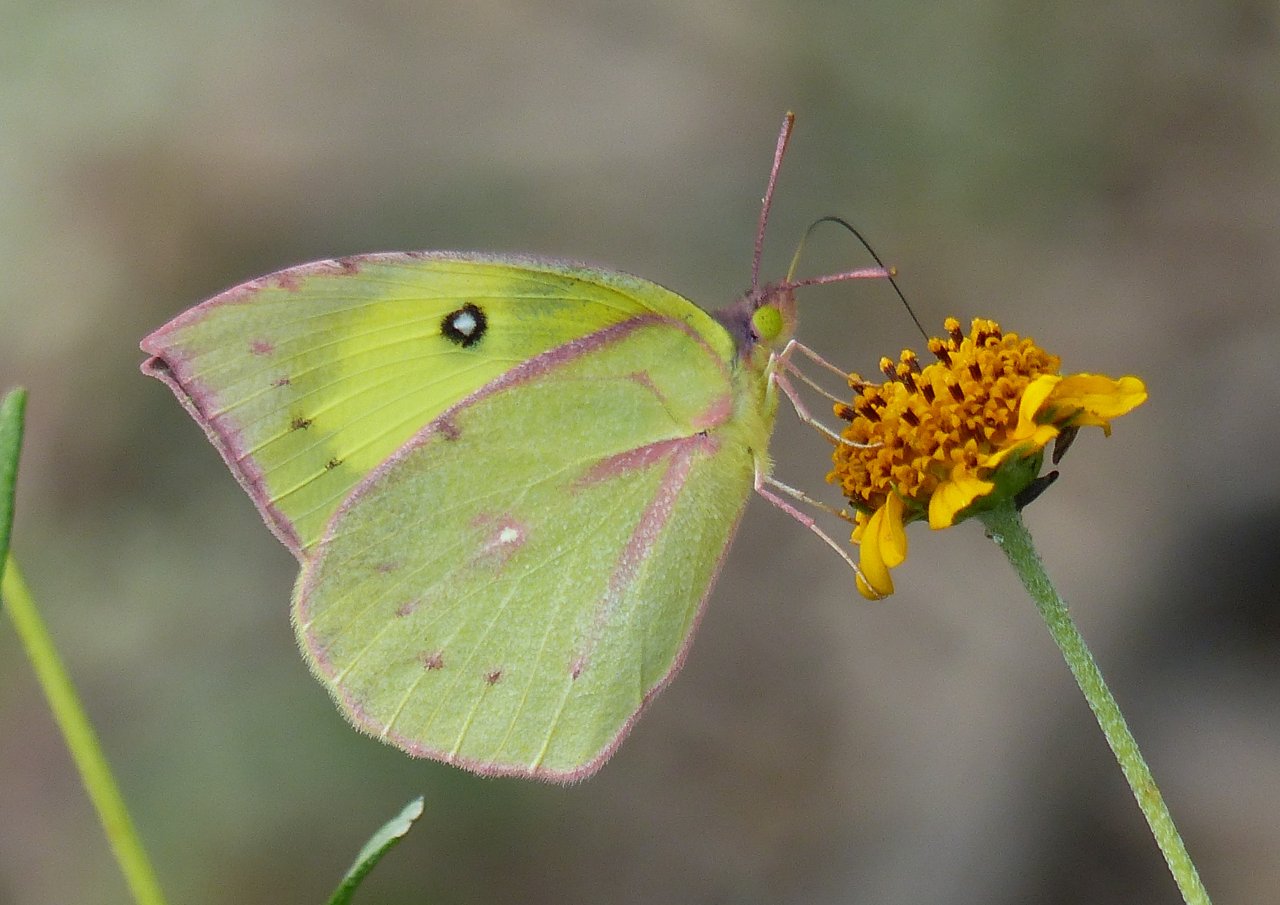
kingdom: Animalia
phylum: Arthropoda
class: Insecta
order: Lepidoptera
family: Pieridae
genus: Zerene
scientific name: Zerene cesonia
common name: Southern Dogface
